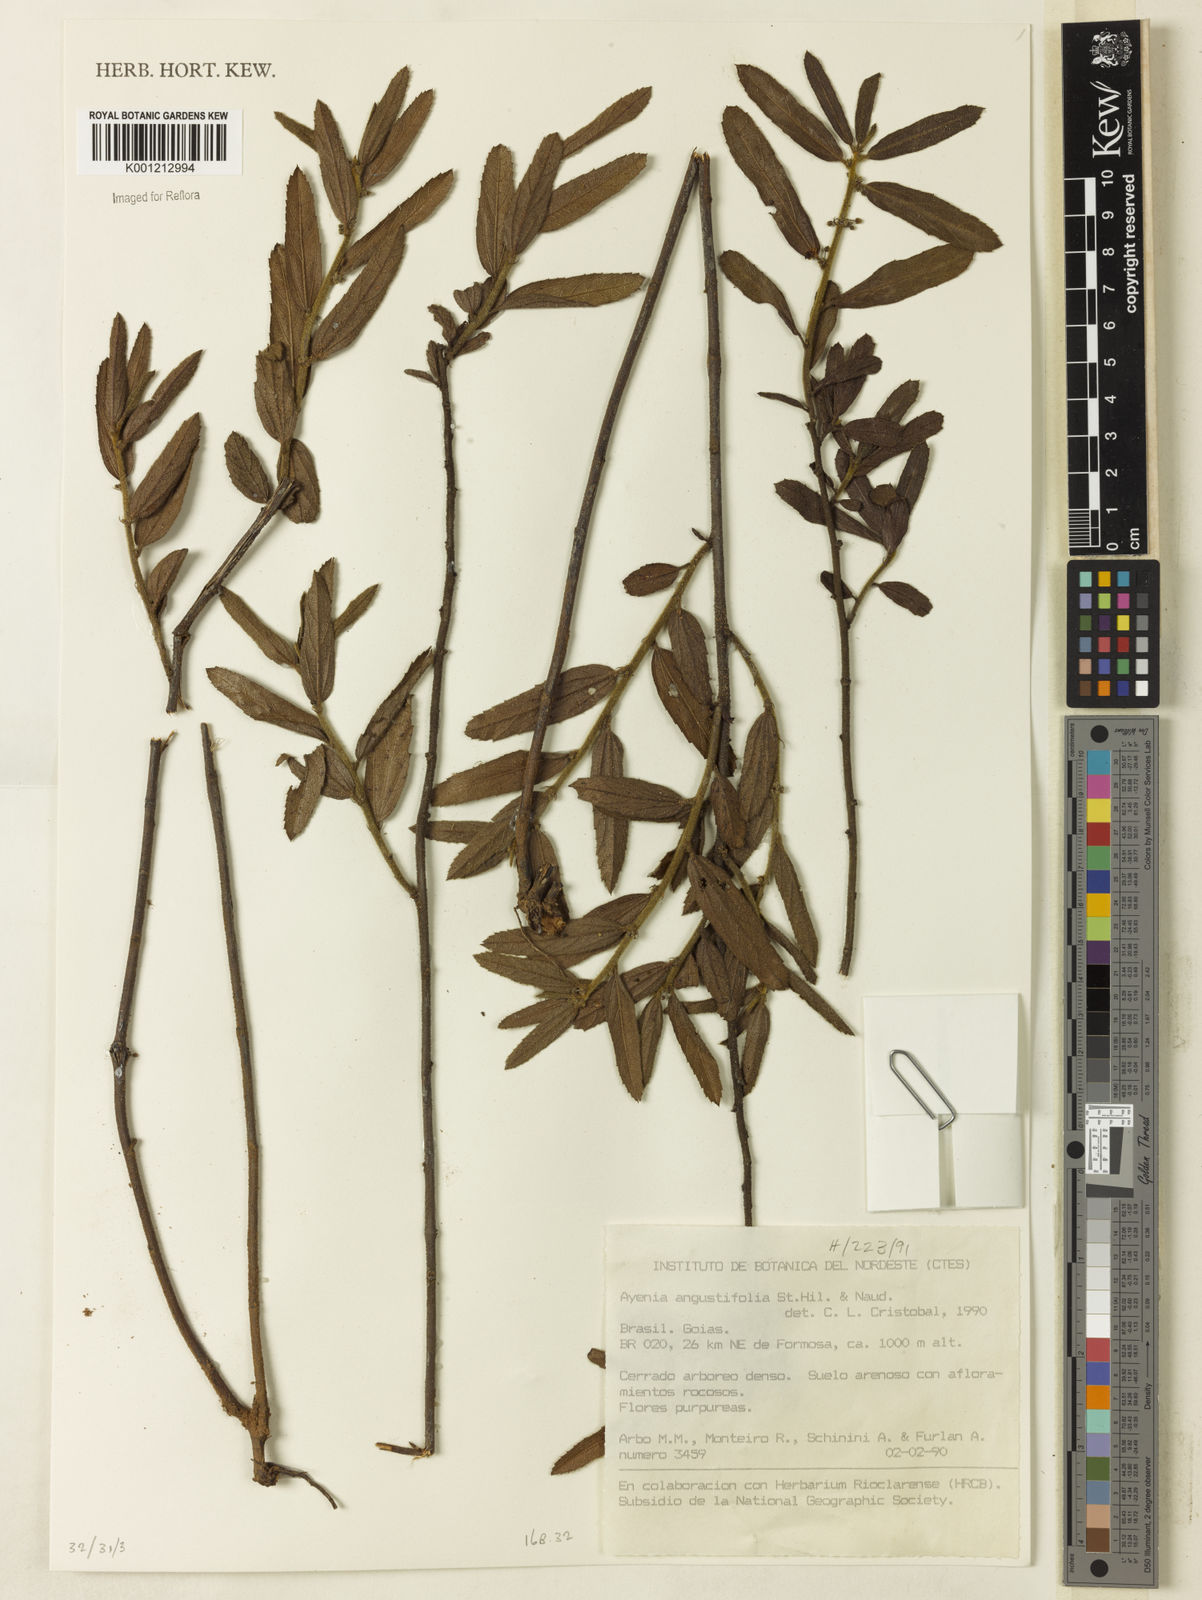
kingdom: Plantae
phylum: Tracheophyta
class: Magnoliopsida
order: Malvales
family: Malvaceae
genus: Ayenia
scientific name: Ayenia angustifolia
